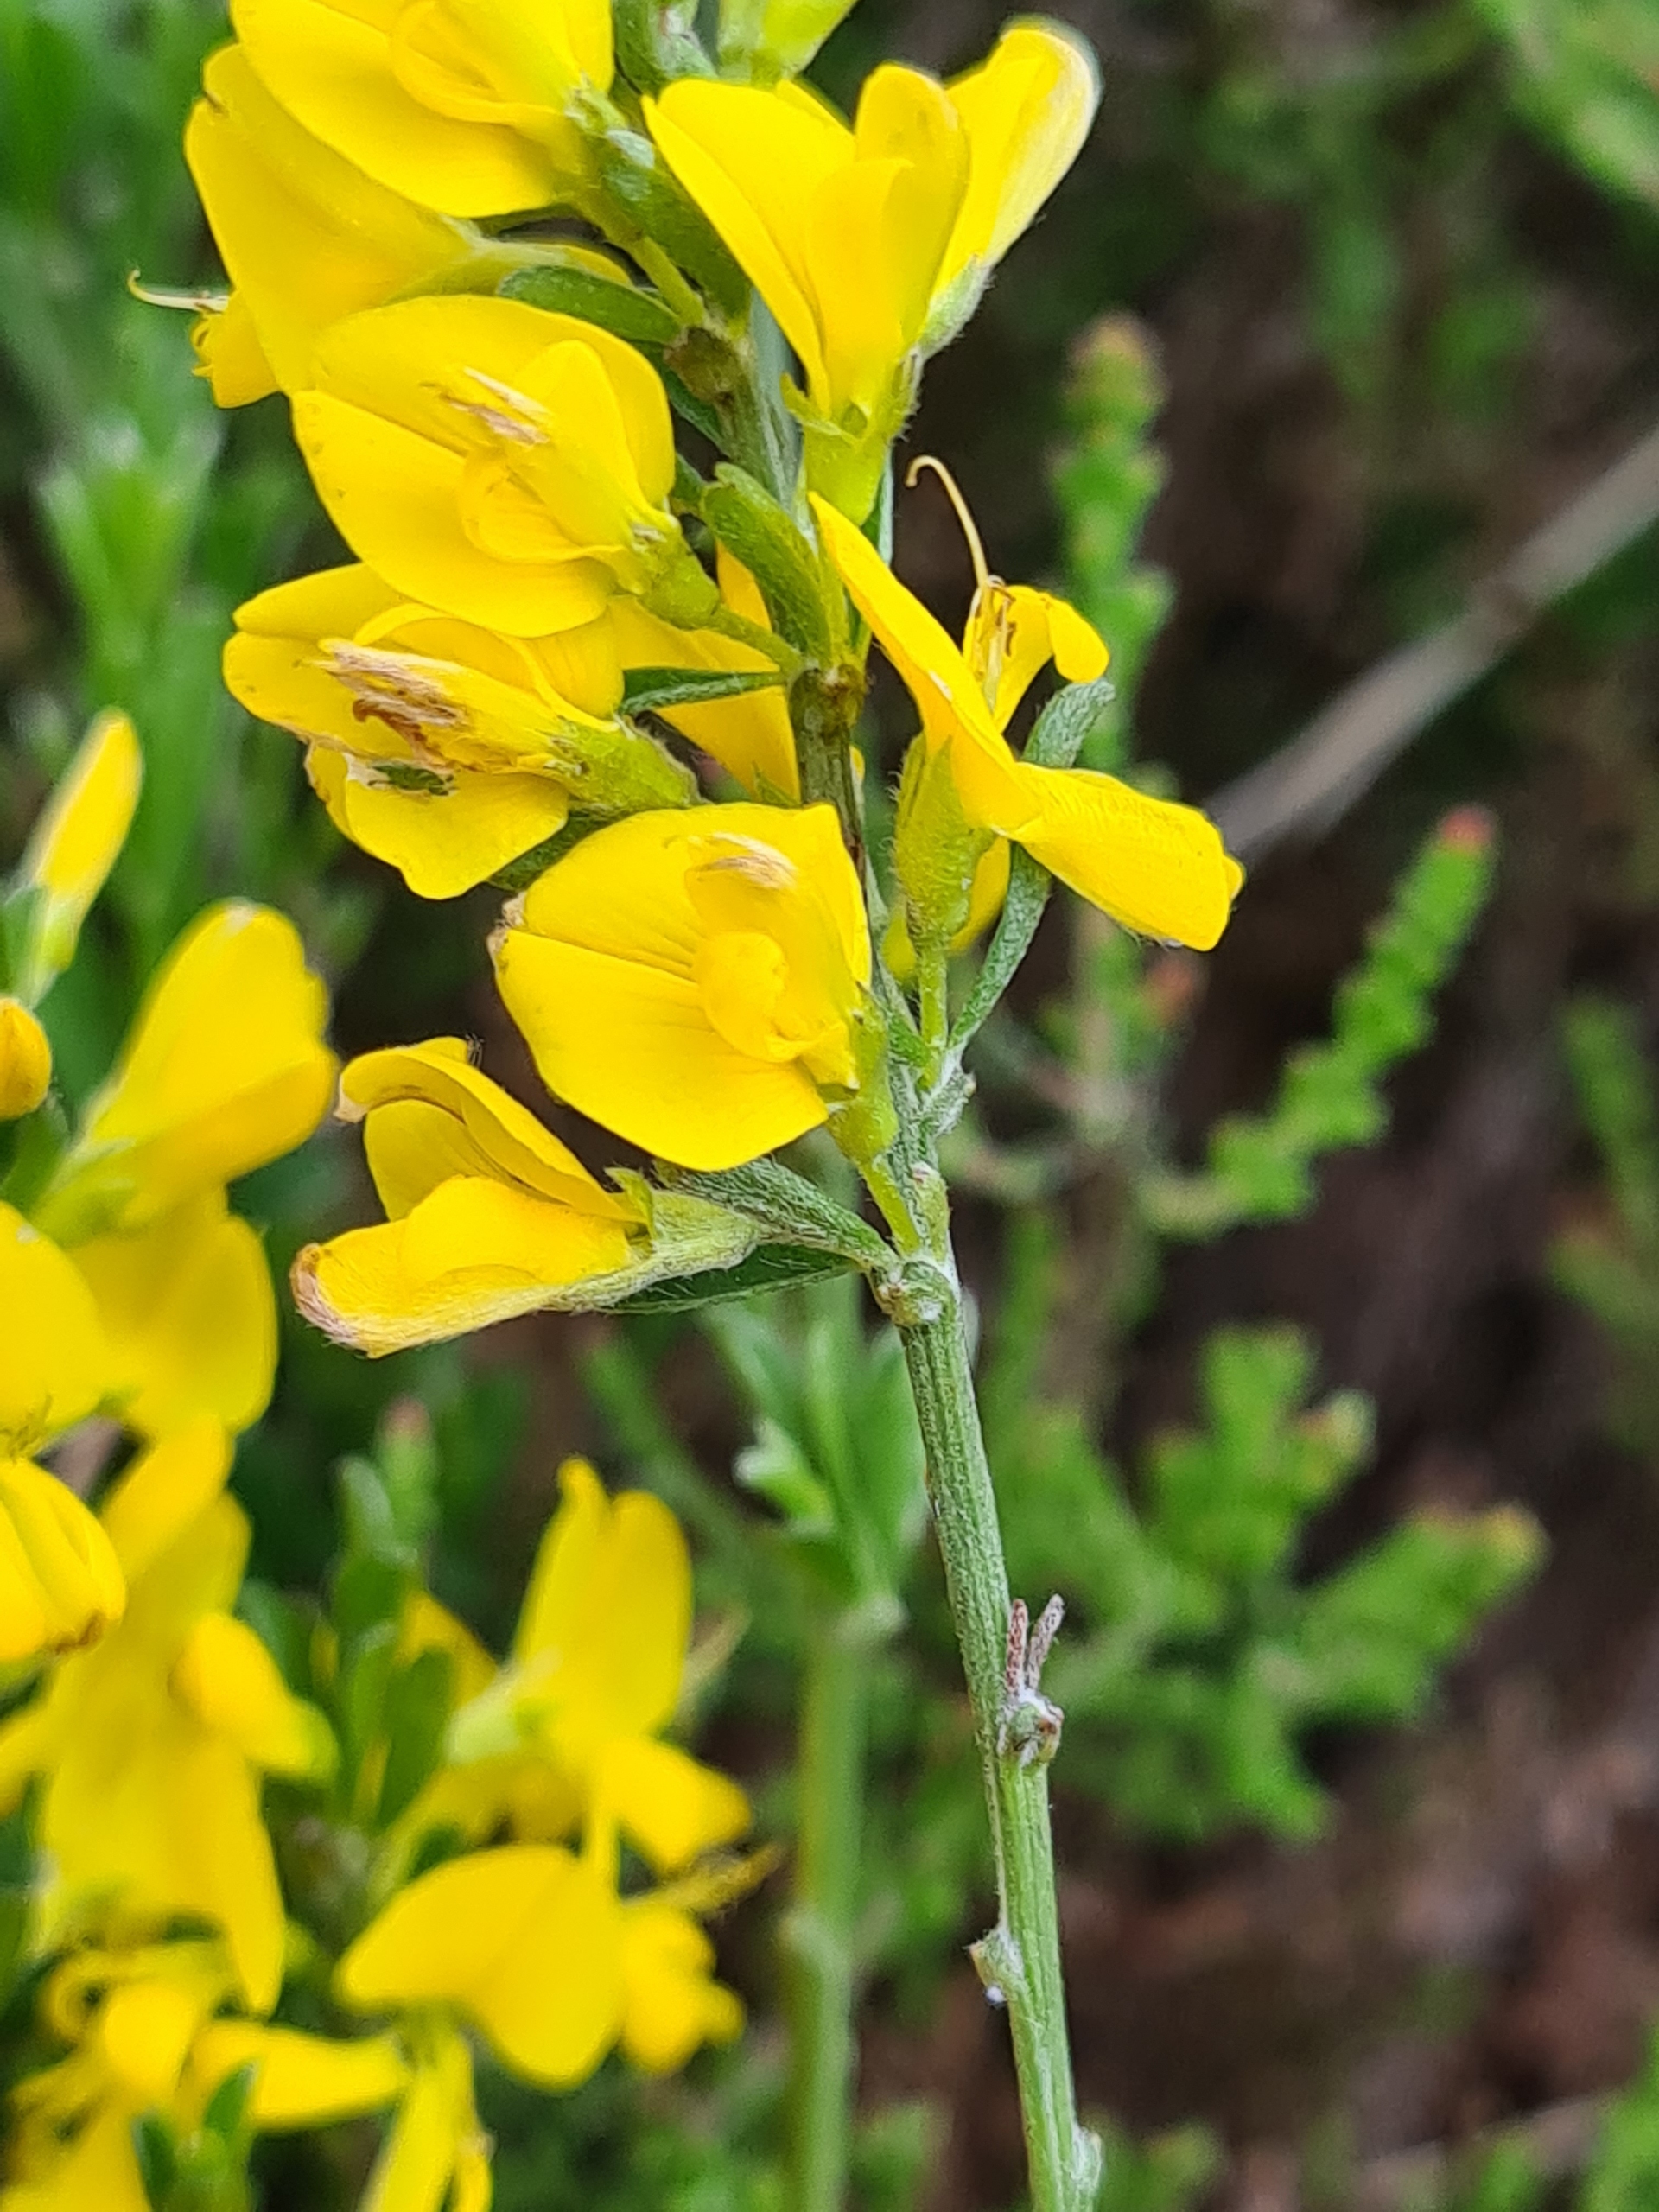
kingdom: Plantae
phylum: Tracheophyta
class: Magnoliopsida
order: Fabales
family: Fabaceae
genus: Genista
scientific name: Genista pilosa
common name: Håret visse
